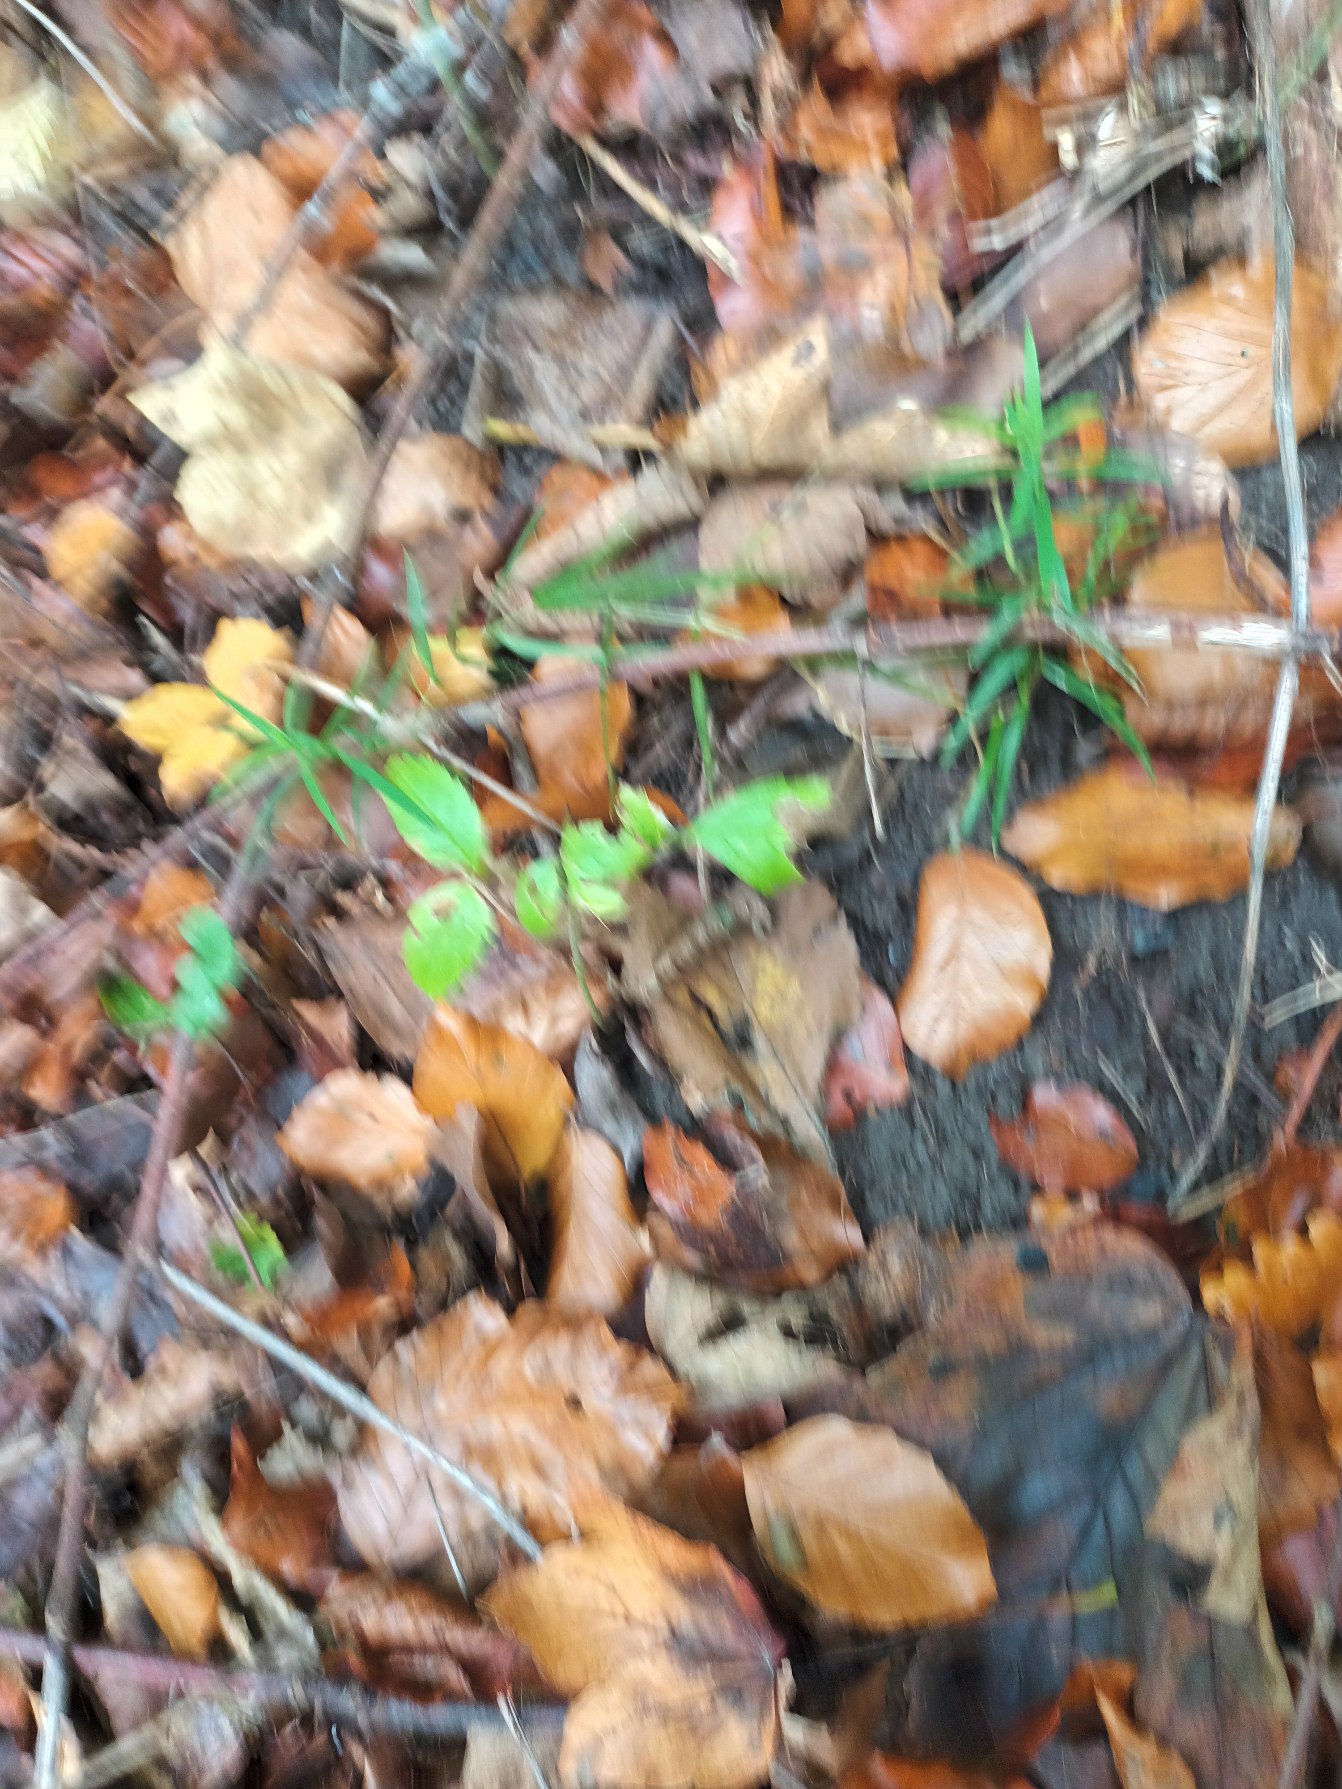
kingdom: Plantae
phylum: Tracheophyta
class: Magnoliopsida
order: Caryophyllales
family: Caryophyllaceae
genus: Rabelera
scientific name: Rabelera holostea
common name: Stor fladstjerne
